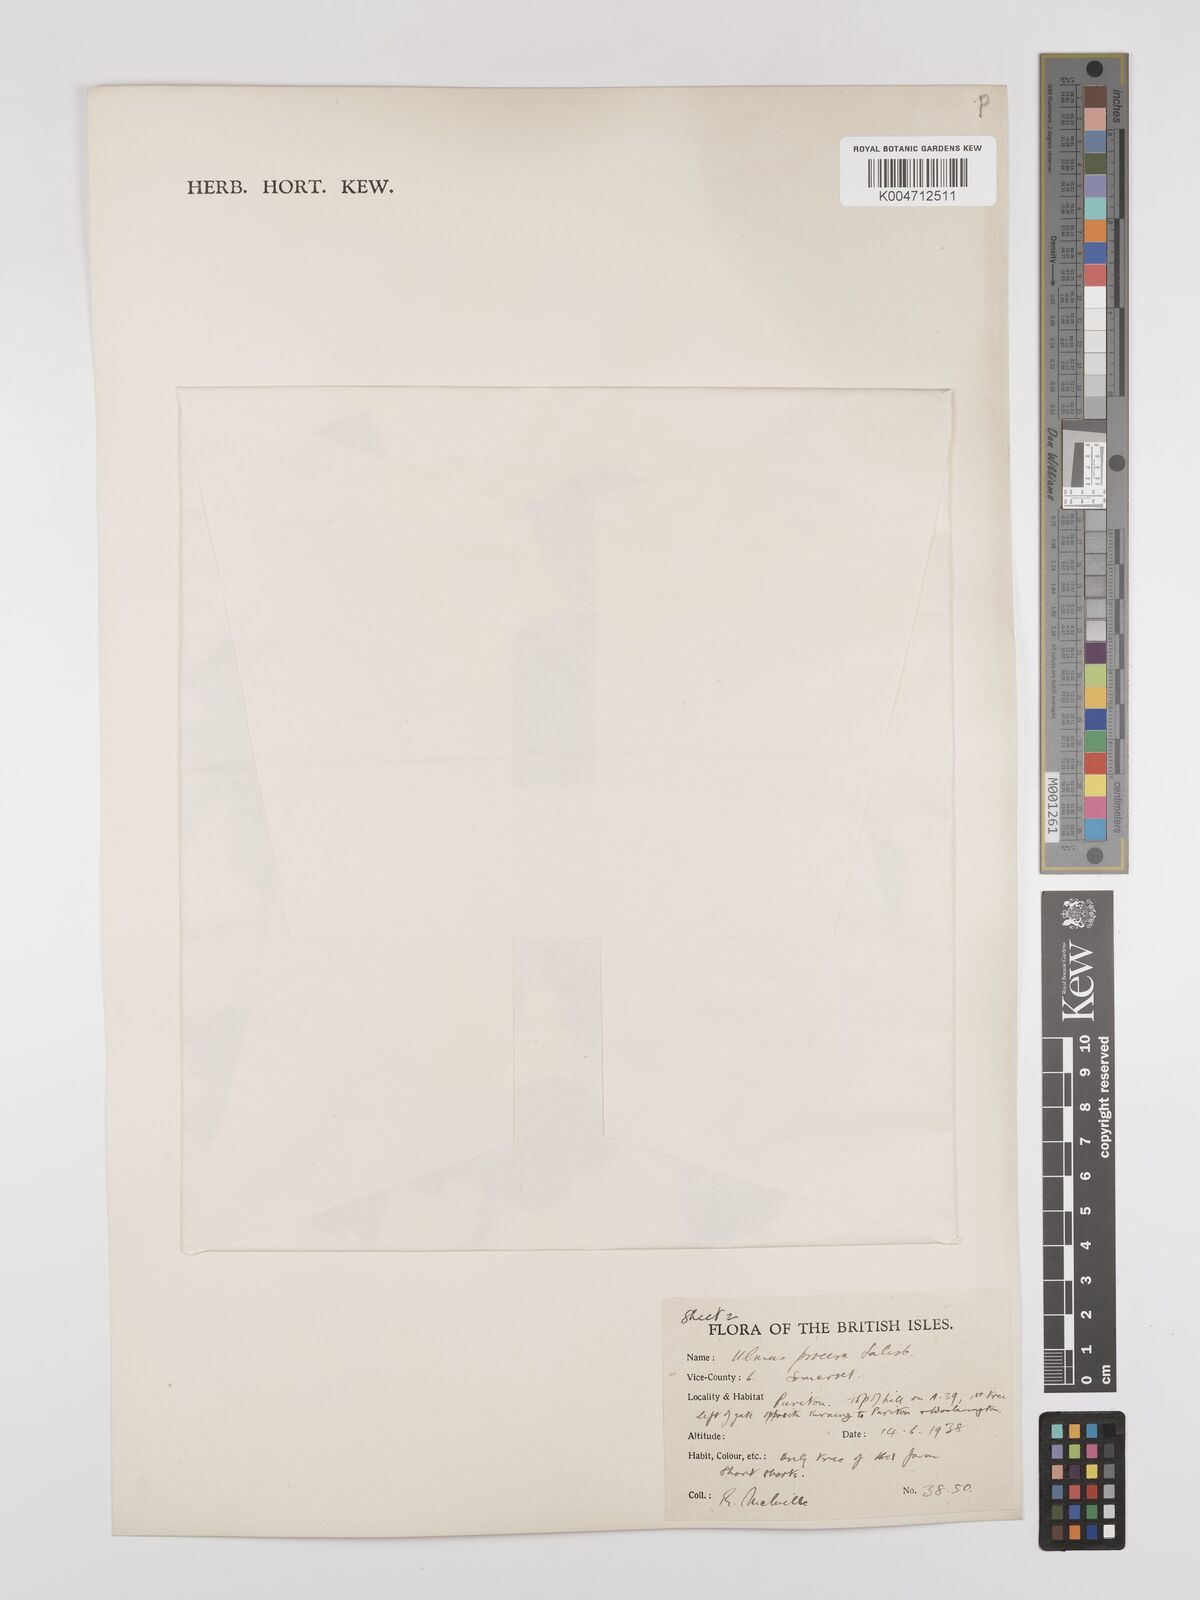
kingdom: Plantae
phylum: Tracheophyta
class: Magnoliopsida
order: Rosales
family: Ulmaceae
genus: Ulmus
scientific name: Ulmus minor
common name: Small-leaved elm
